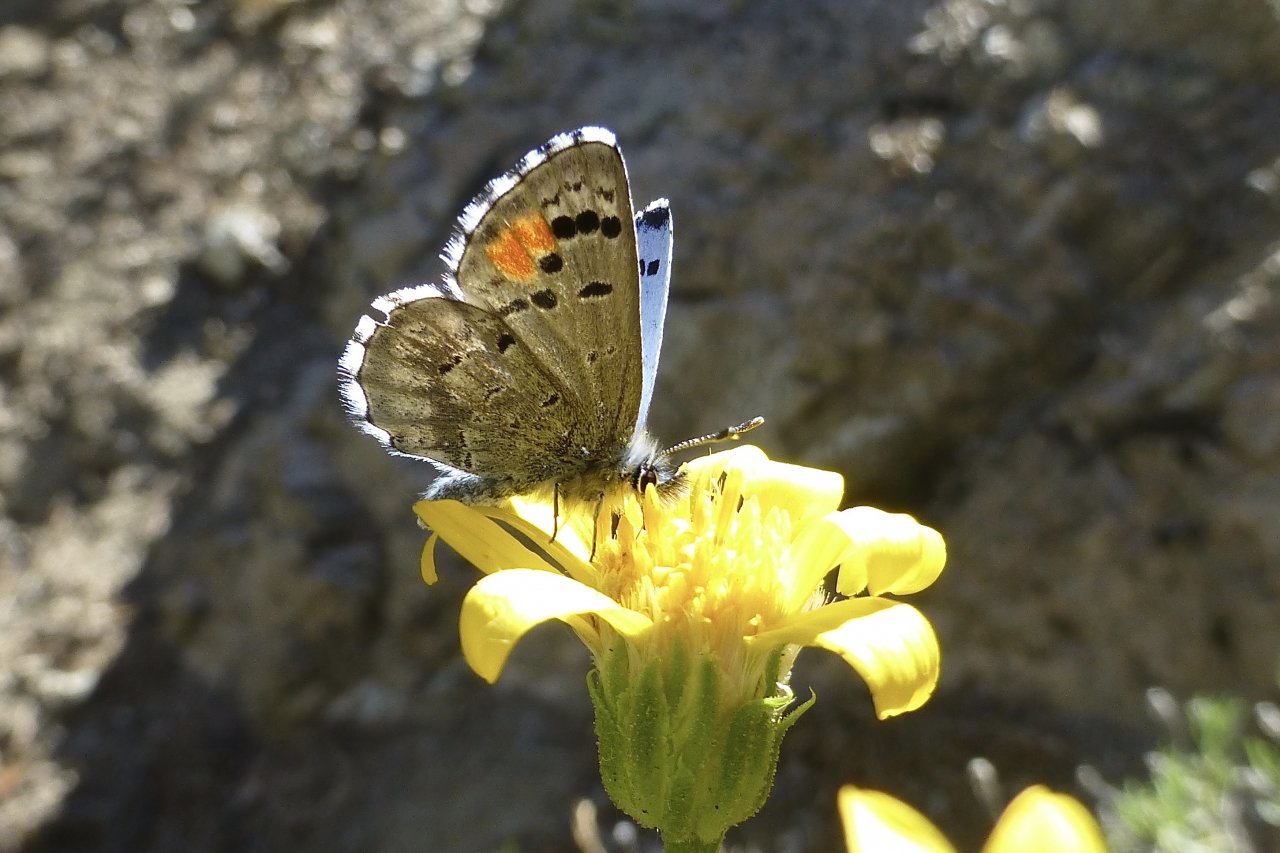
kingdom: Animalia
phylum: Arthropoda
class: Insecta
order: Lepidoptera
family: Lycaenidae
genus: Philotes
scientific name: Philotes sonorensis
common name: Sonoran Blue
